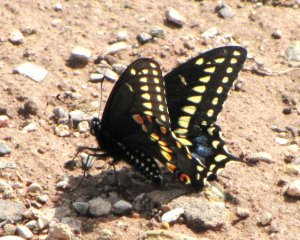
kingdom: Animalia
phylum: Arthropoda
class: Insecta
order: Lepidoptera
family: Papilionidae
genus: Papilio
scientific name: Papilio polyxenes
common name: Black Swallowtail
